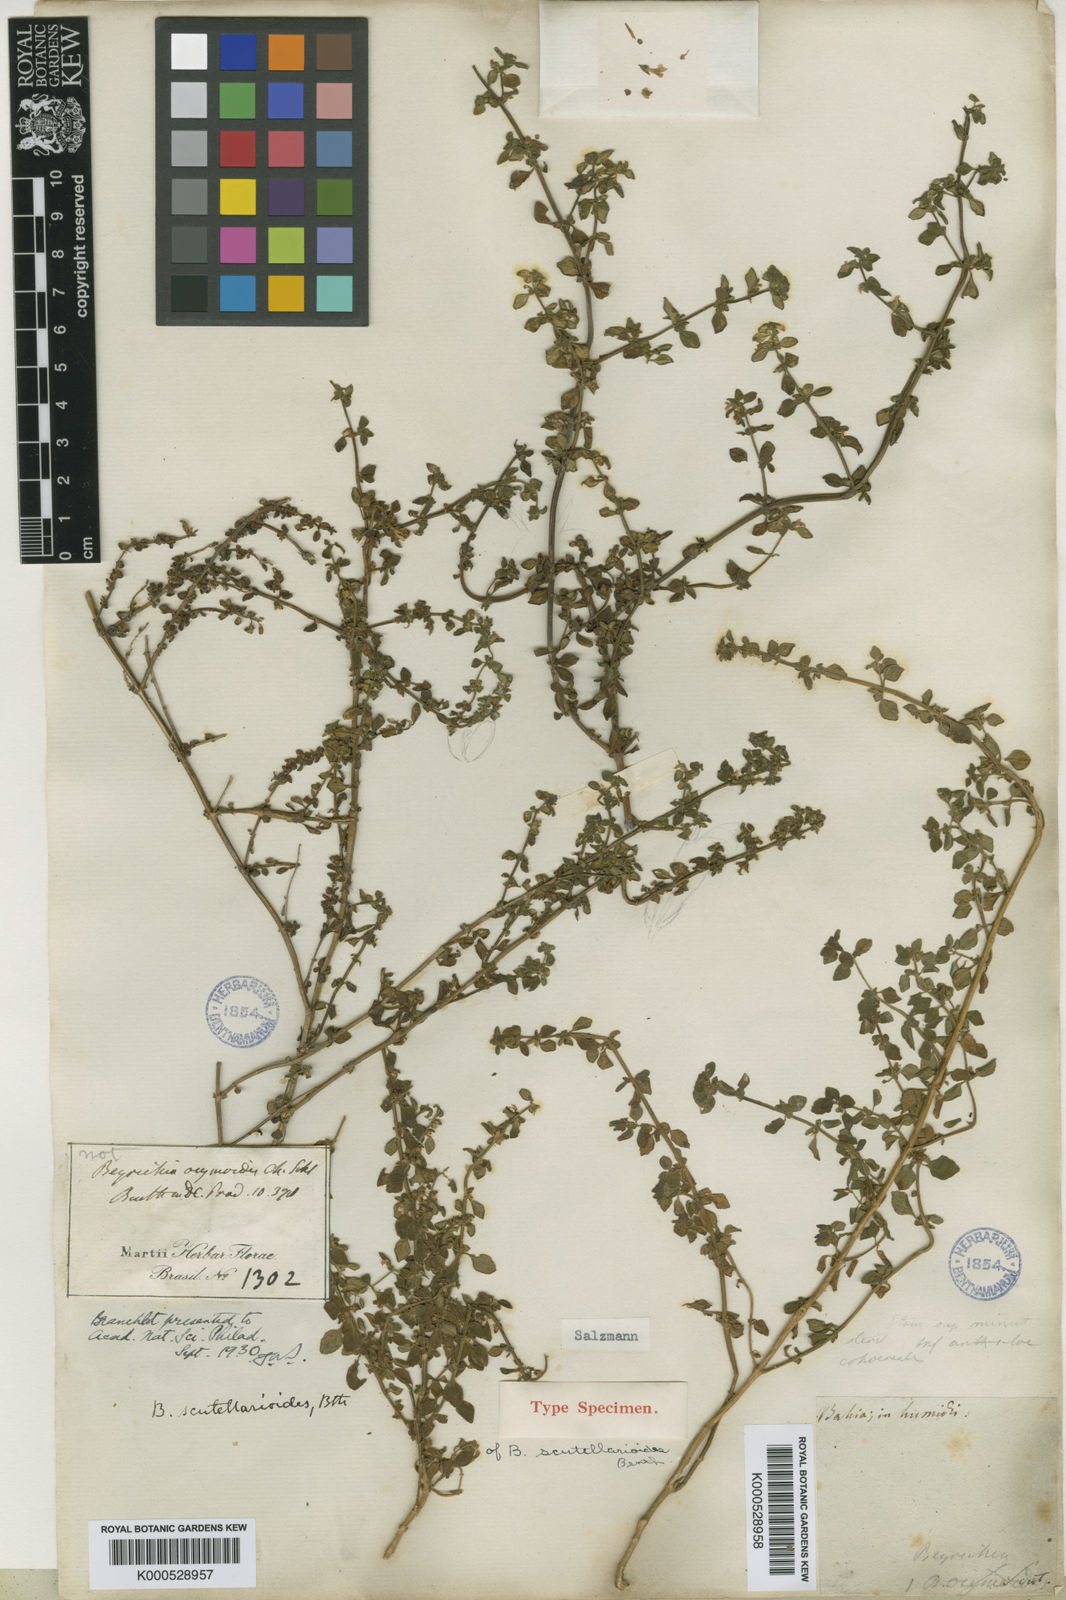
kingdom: Plantae
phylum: Tracheophyta
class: Magnoliopsida
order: Lamiales
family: Plantaginaceae
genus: Matourea
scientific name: Matourea
